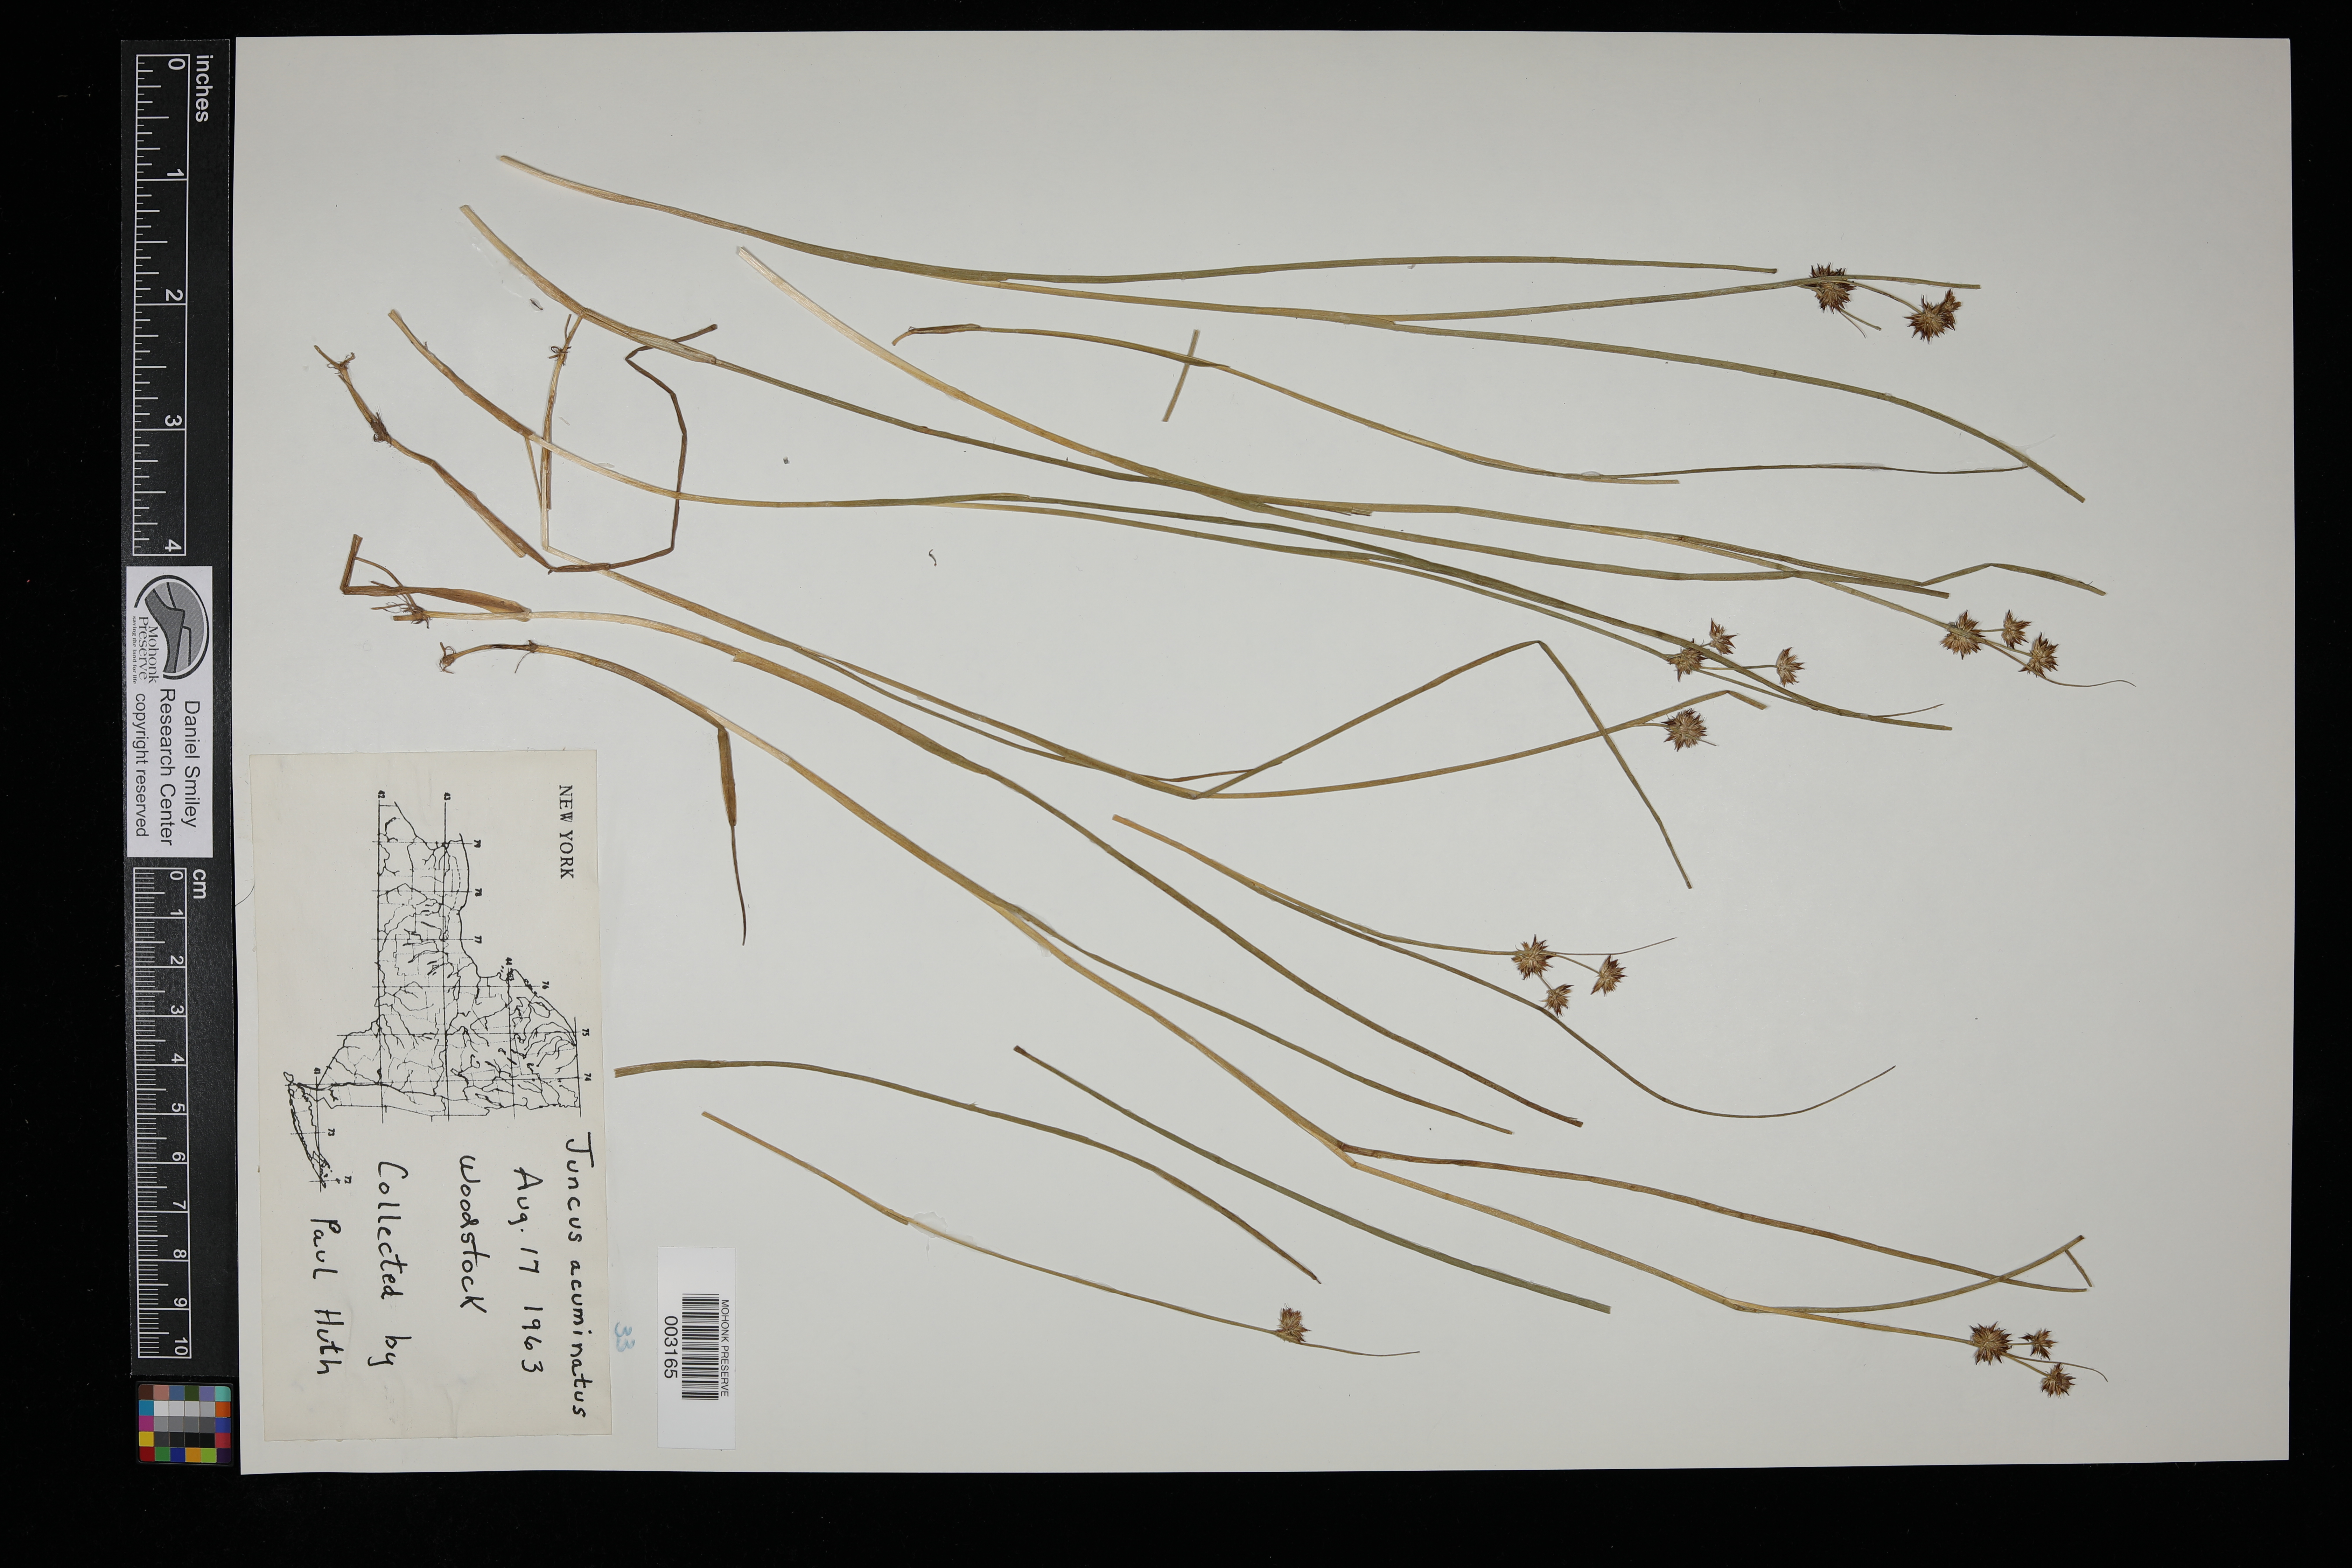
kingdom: Plantae
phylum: Tracheophyta
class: Liliopsida
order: Poales
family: Juncaceae
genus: Juncus
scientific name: Juncus acuminatus
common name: Knotty-leaved rush
